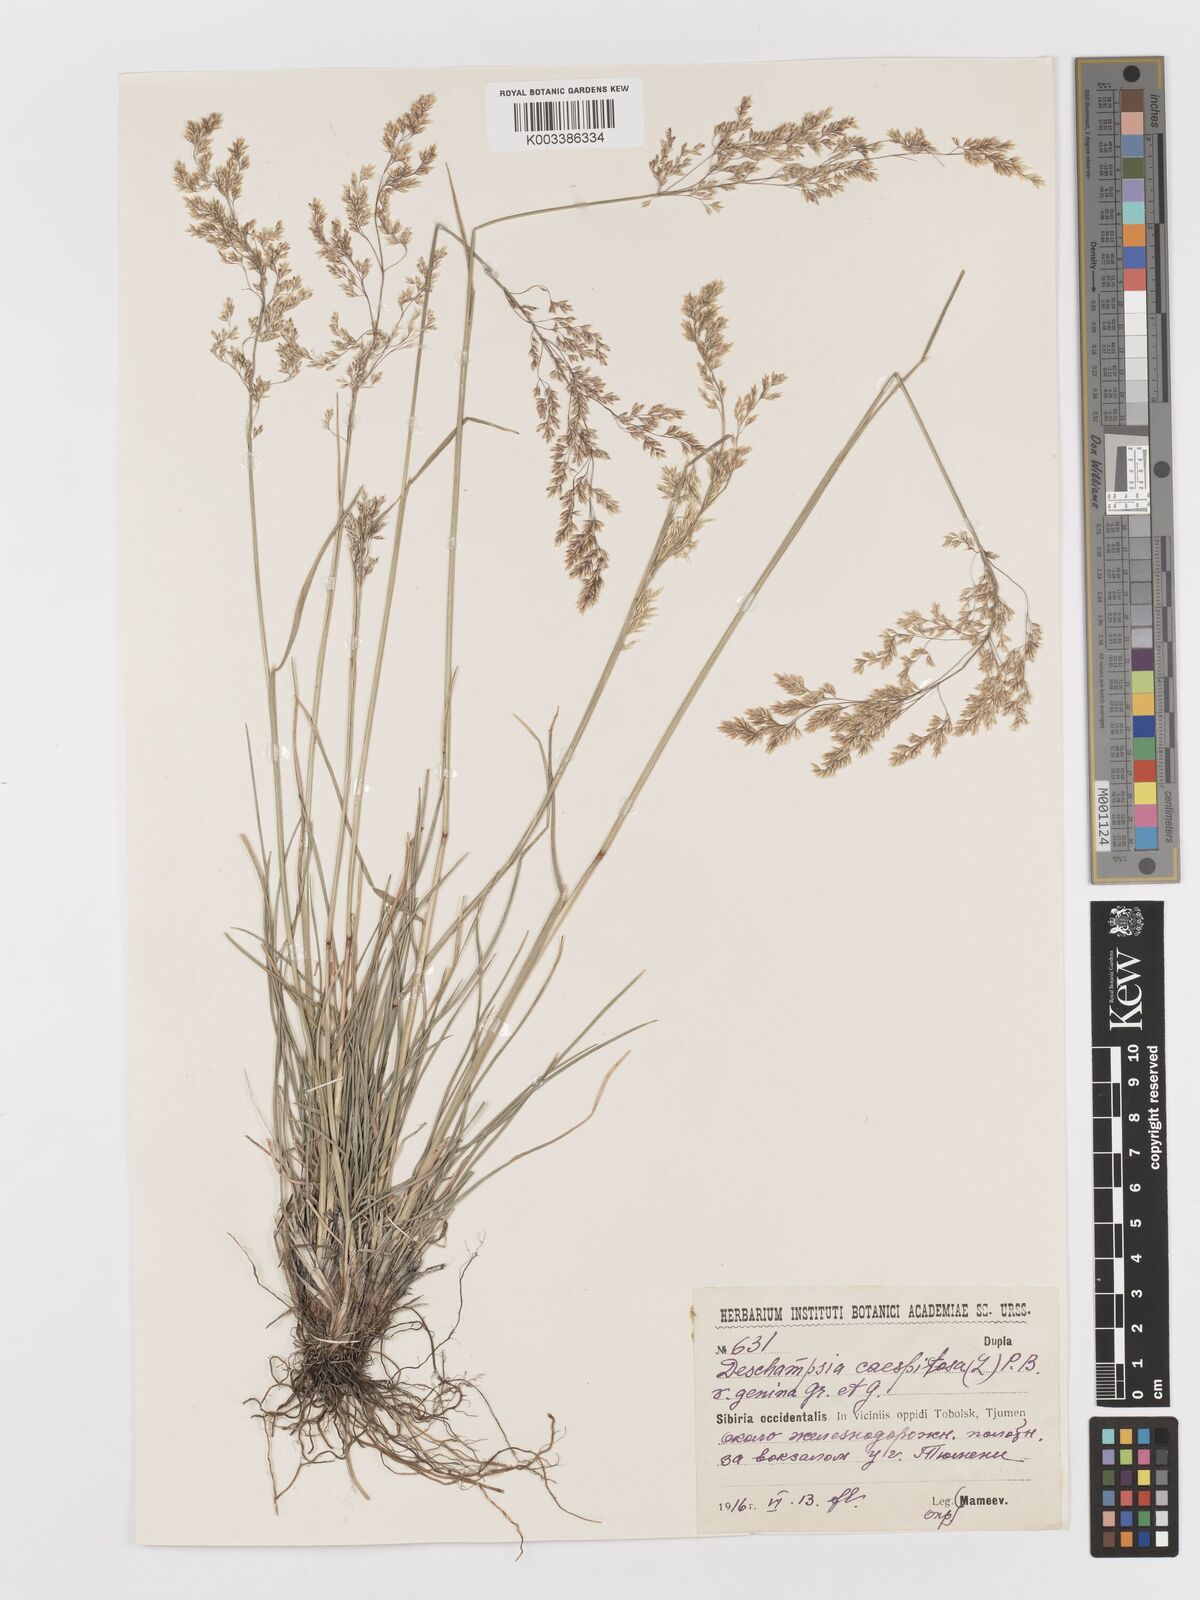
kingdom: Plantae
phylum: Tracheophyta
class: Liliopsida
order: Poales
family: Poaceae
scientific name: Poaceae
